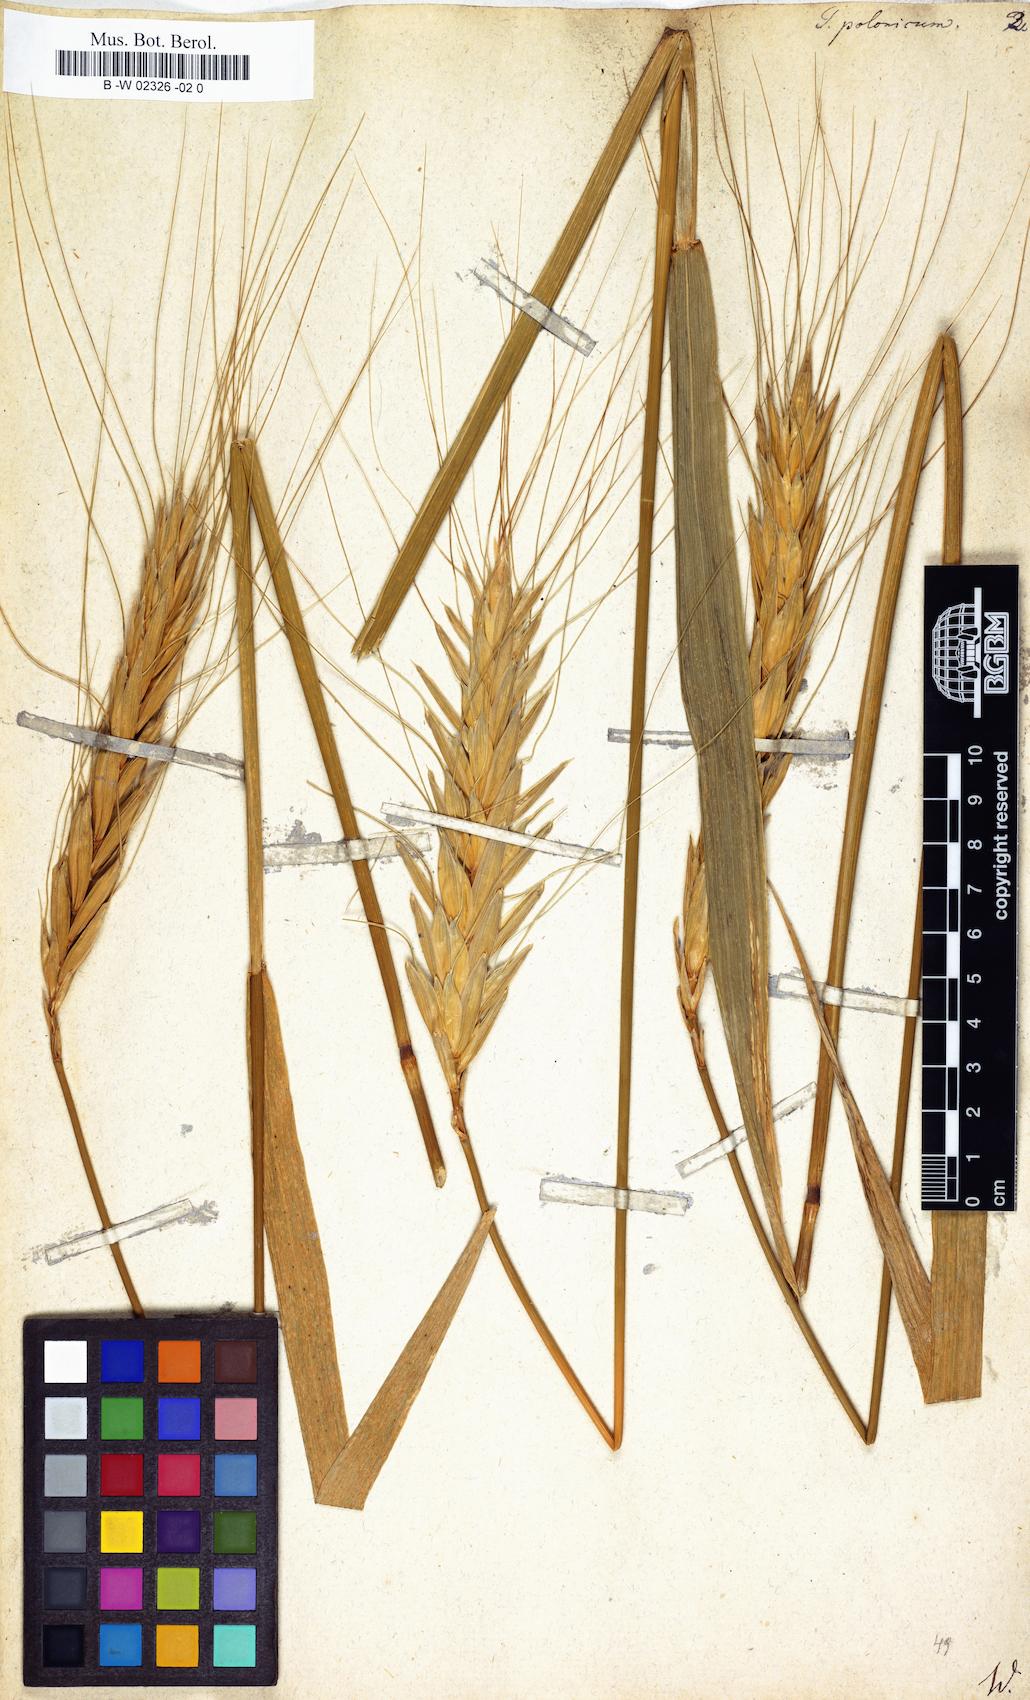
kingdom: Plantae
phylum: Tracheophyta
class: Liliopsida
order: Poales
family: Poaceae
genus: Triticum
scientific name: Triticum turgidum
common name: Rivet wheat
